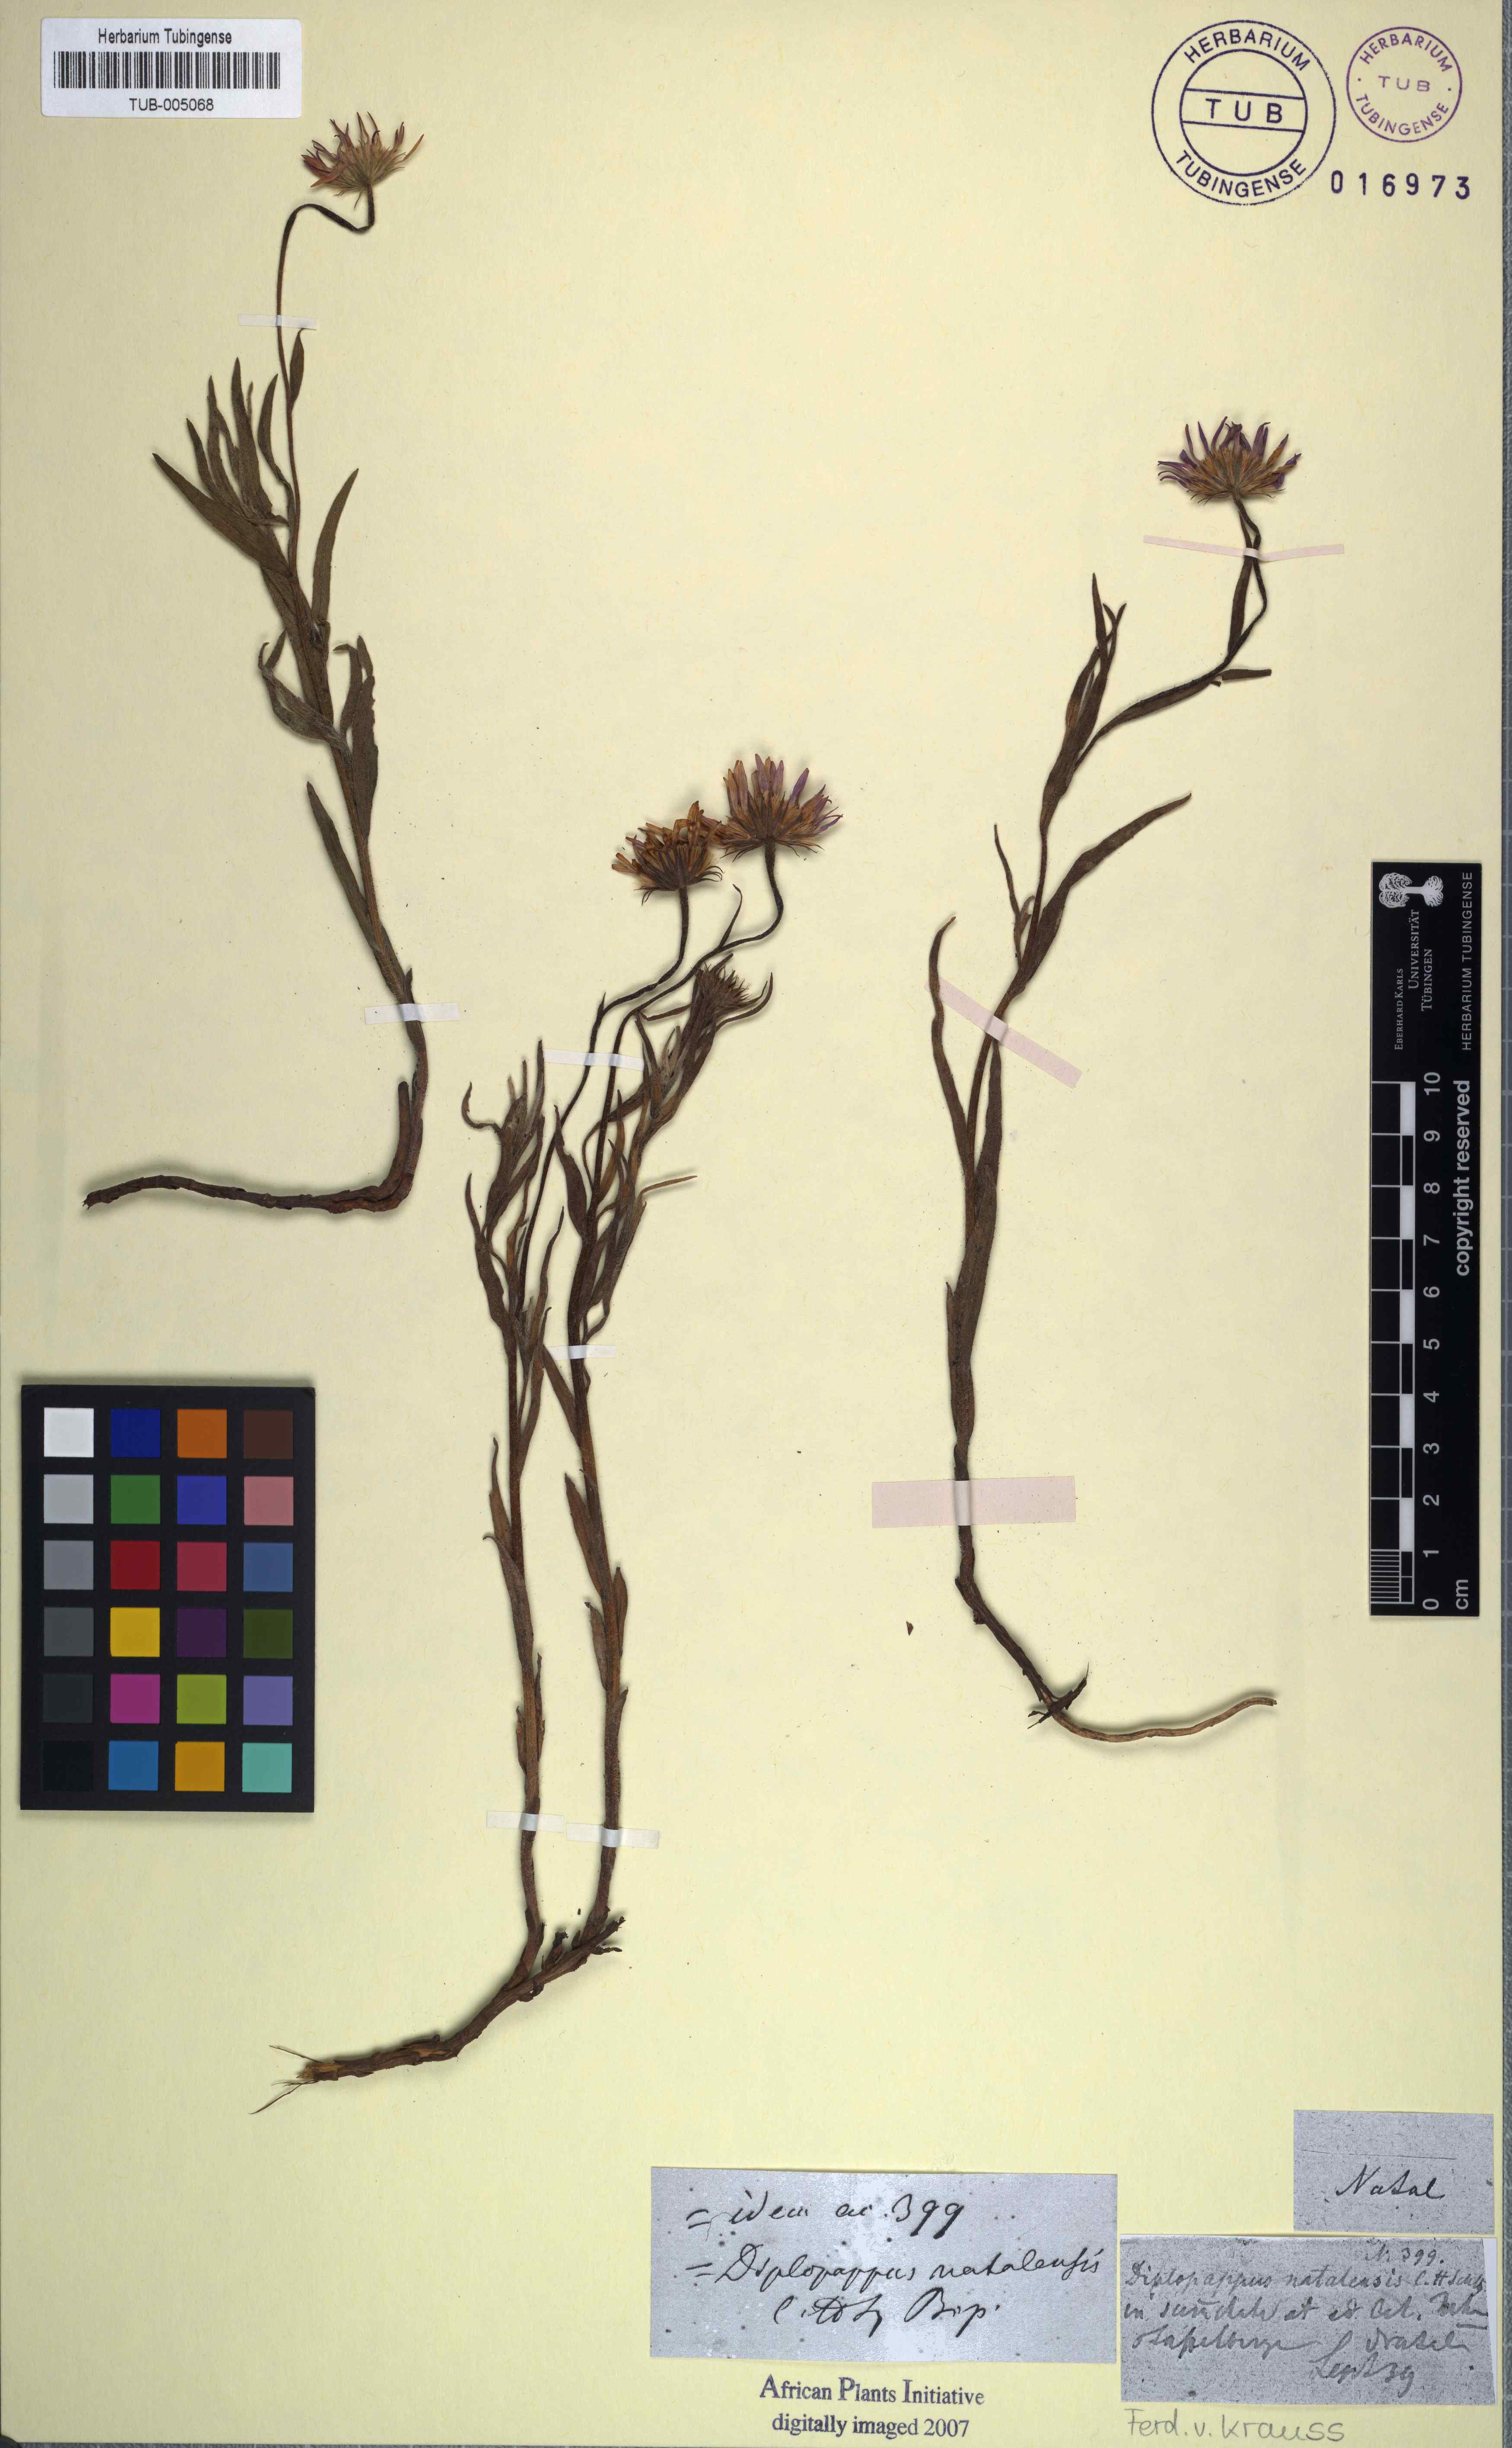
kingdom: Plantae
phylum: Tracheophyta
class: Magnoliopsida
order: Asterales
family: Asteraceae
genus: Felicia
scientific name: Felicia rosulata
